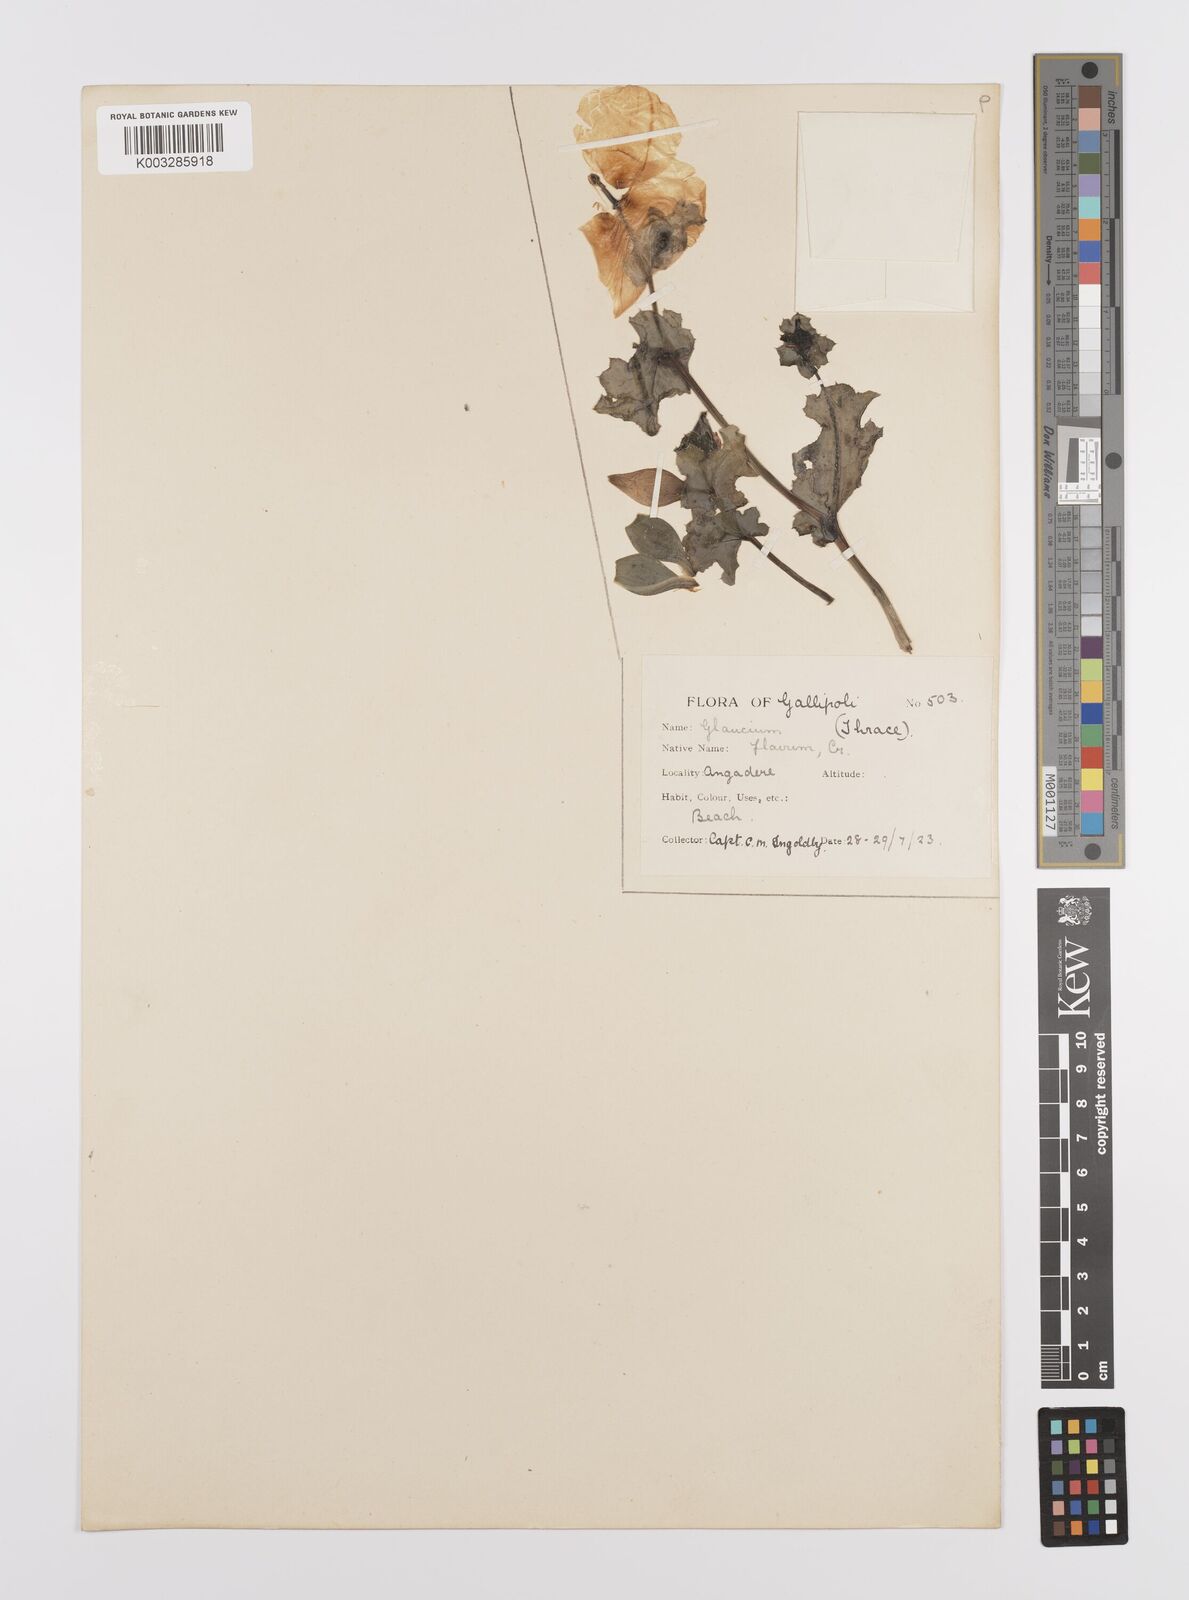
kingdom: Plantae
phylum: Tracheophyta
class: Magnoliopsida
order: Ranunculales
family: Papaveraceae
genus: Glaucium
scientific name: Glaucium flavum
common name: Yellow horned-poppy
